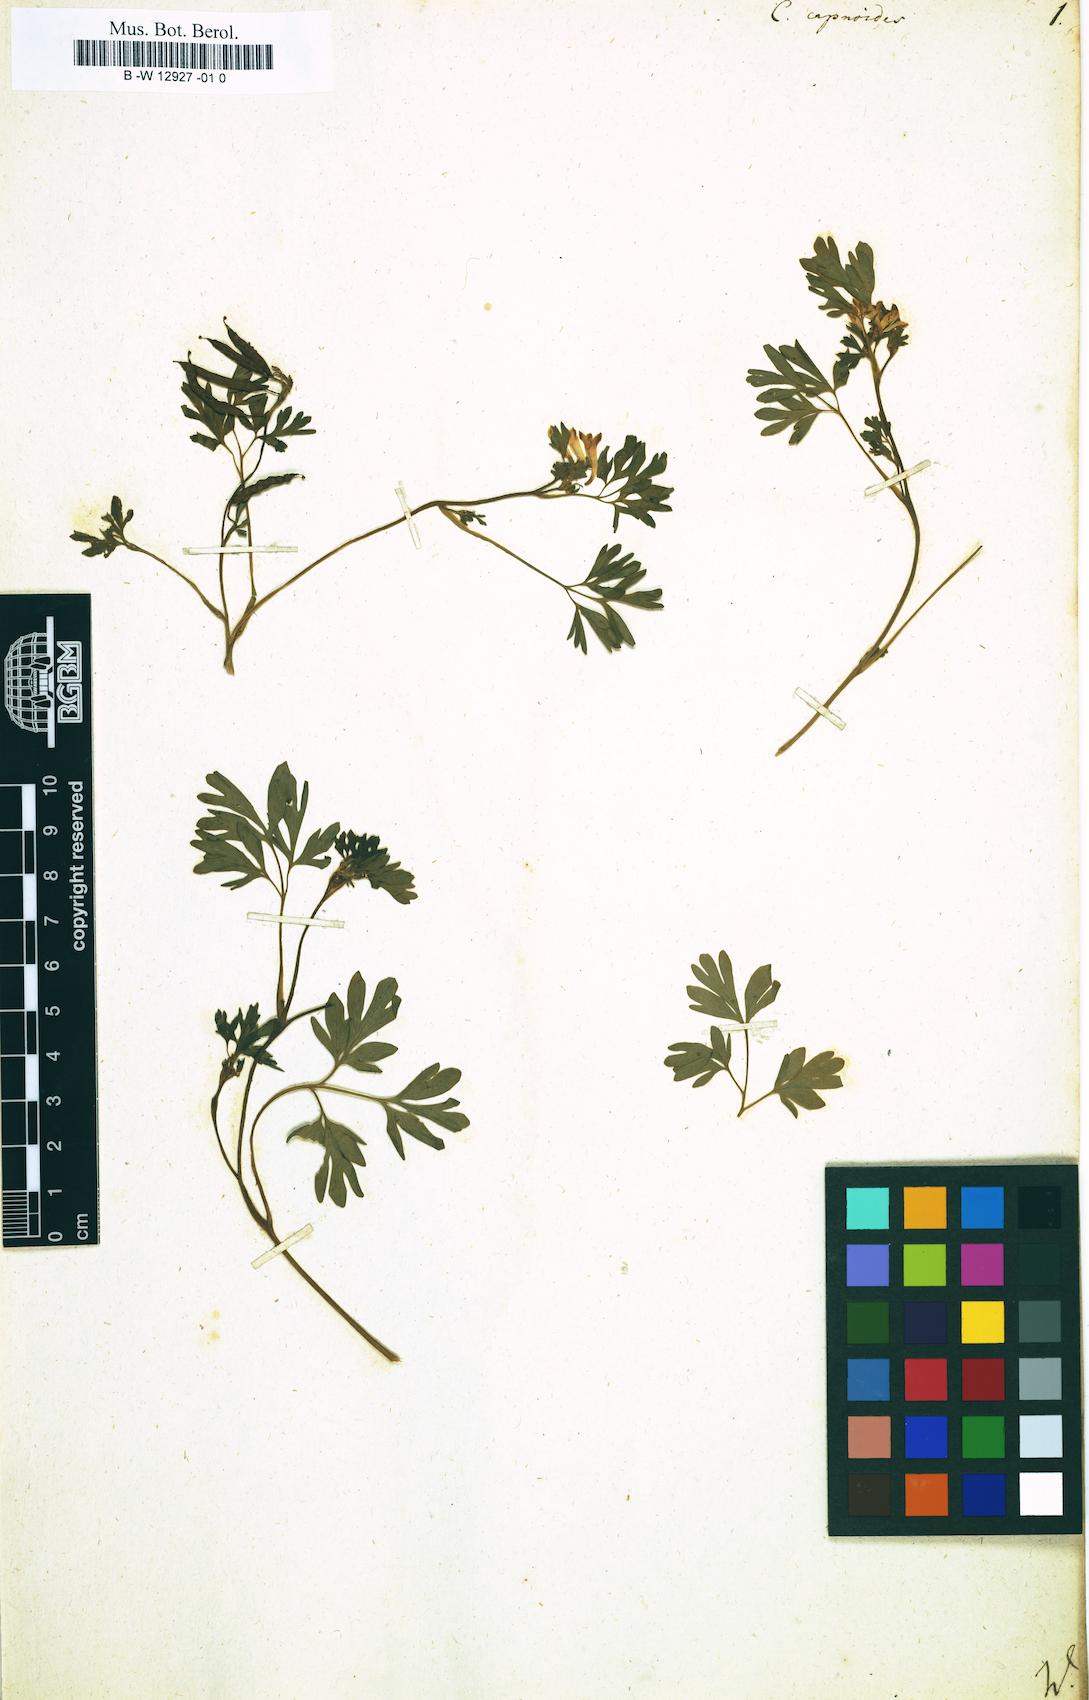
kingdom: Plantae
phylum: Tracheophyta
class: Magnoliopsida
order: Ranunculales
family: Papaveraceae
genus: Fumaria
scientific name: Fumaria capnoides
